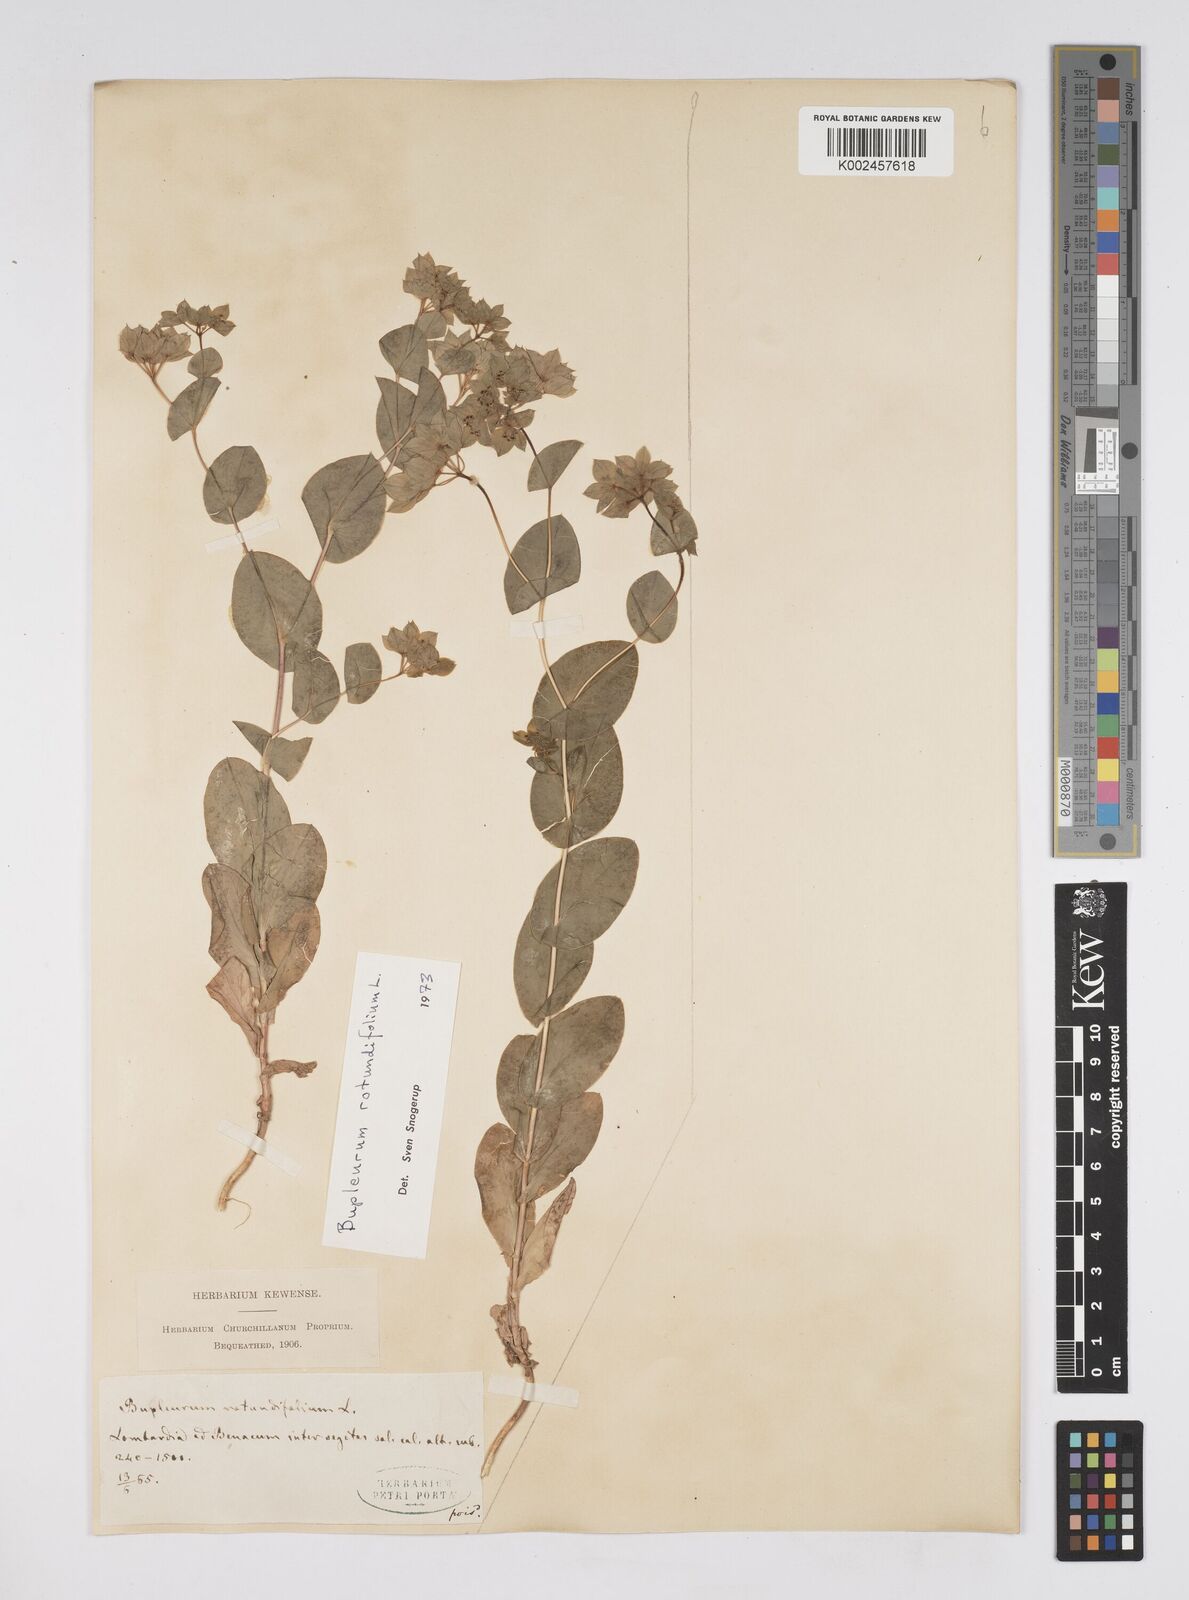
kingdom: Plantae
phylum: Tracheophyta
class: Magnoliopsida
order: Apiales
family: Apiaceae
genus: Bupleurum
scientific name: Bupleurum rotundifolium
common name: Thorow-wax
